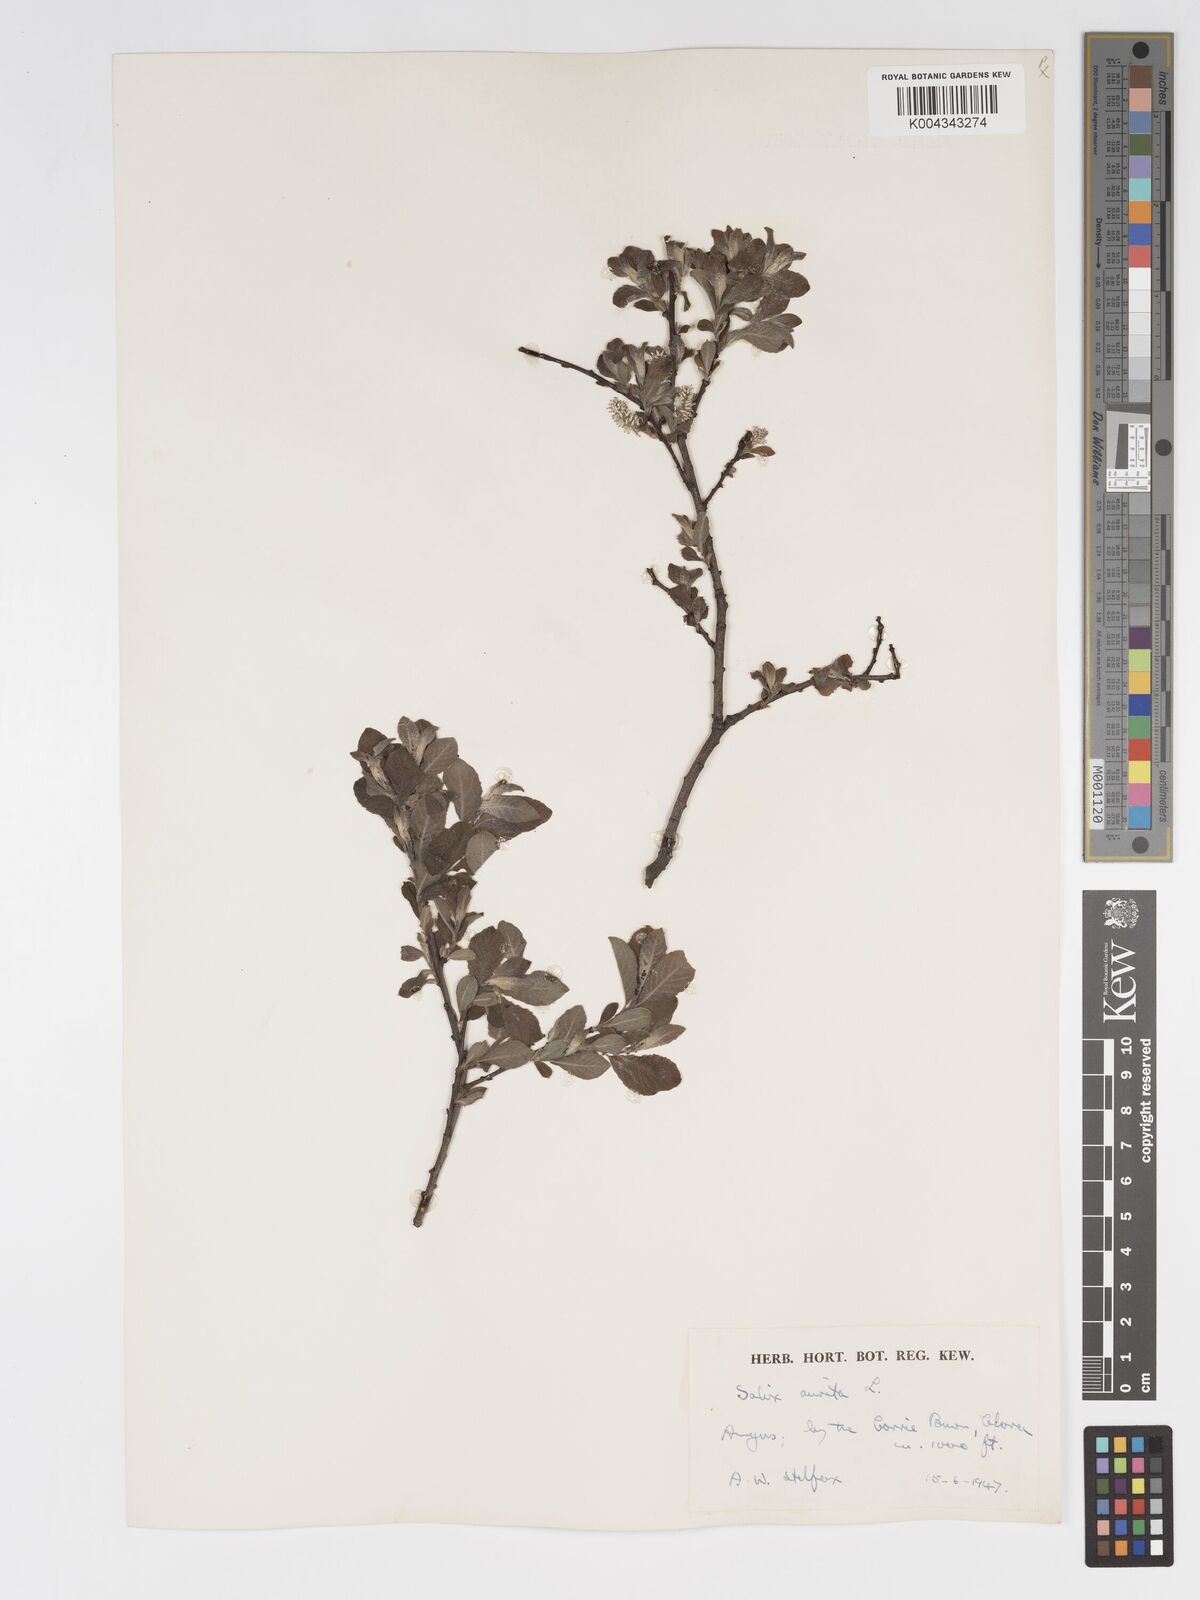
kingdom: Plantae
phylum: Tracheophyta
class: Magnoliopsida
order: Malpighiales
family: Salicaceae
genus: Salix
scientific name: Salix aurita
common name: Eared willow
